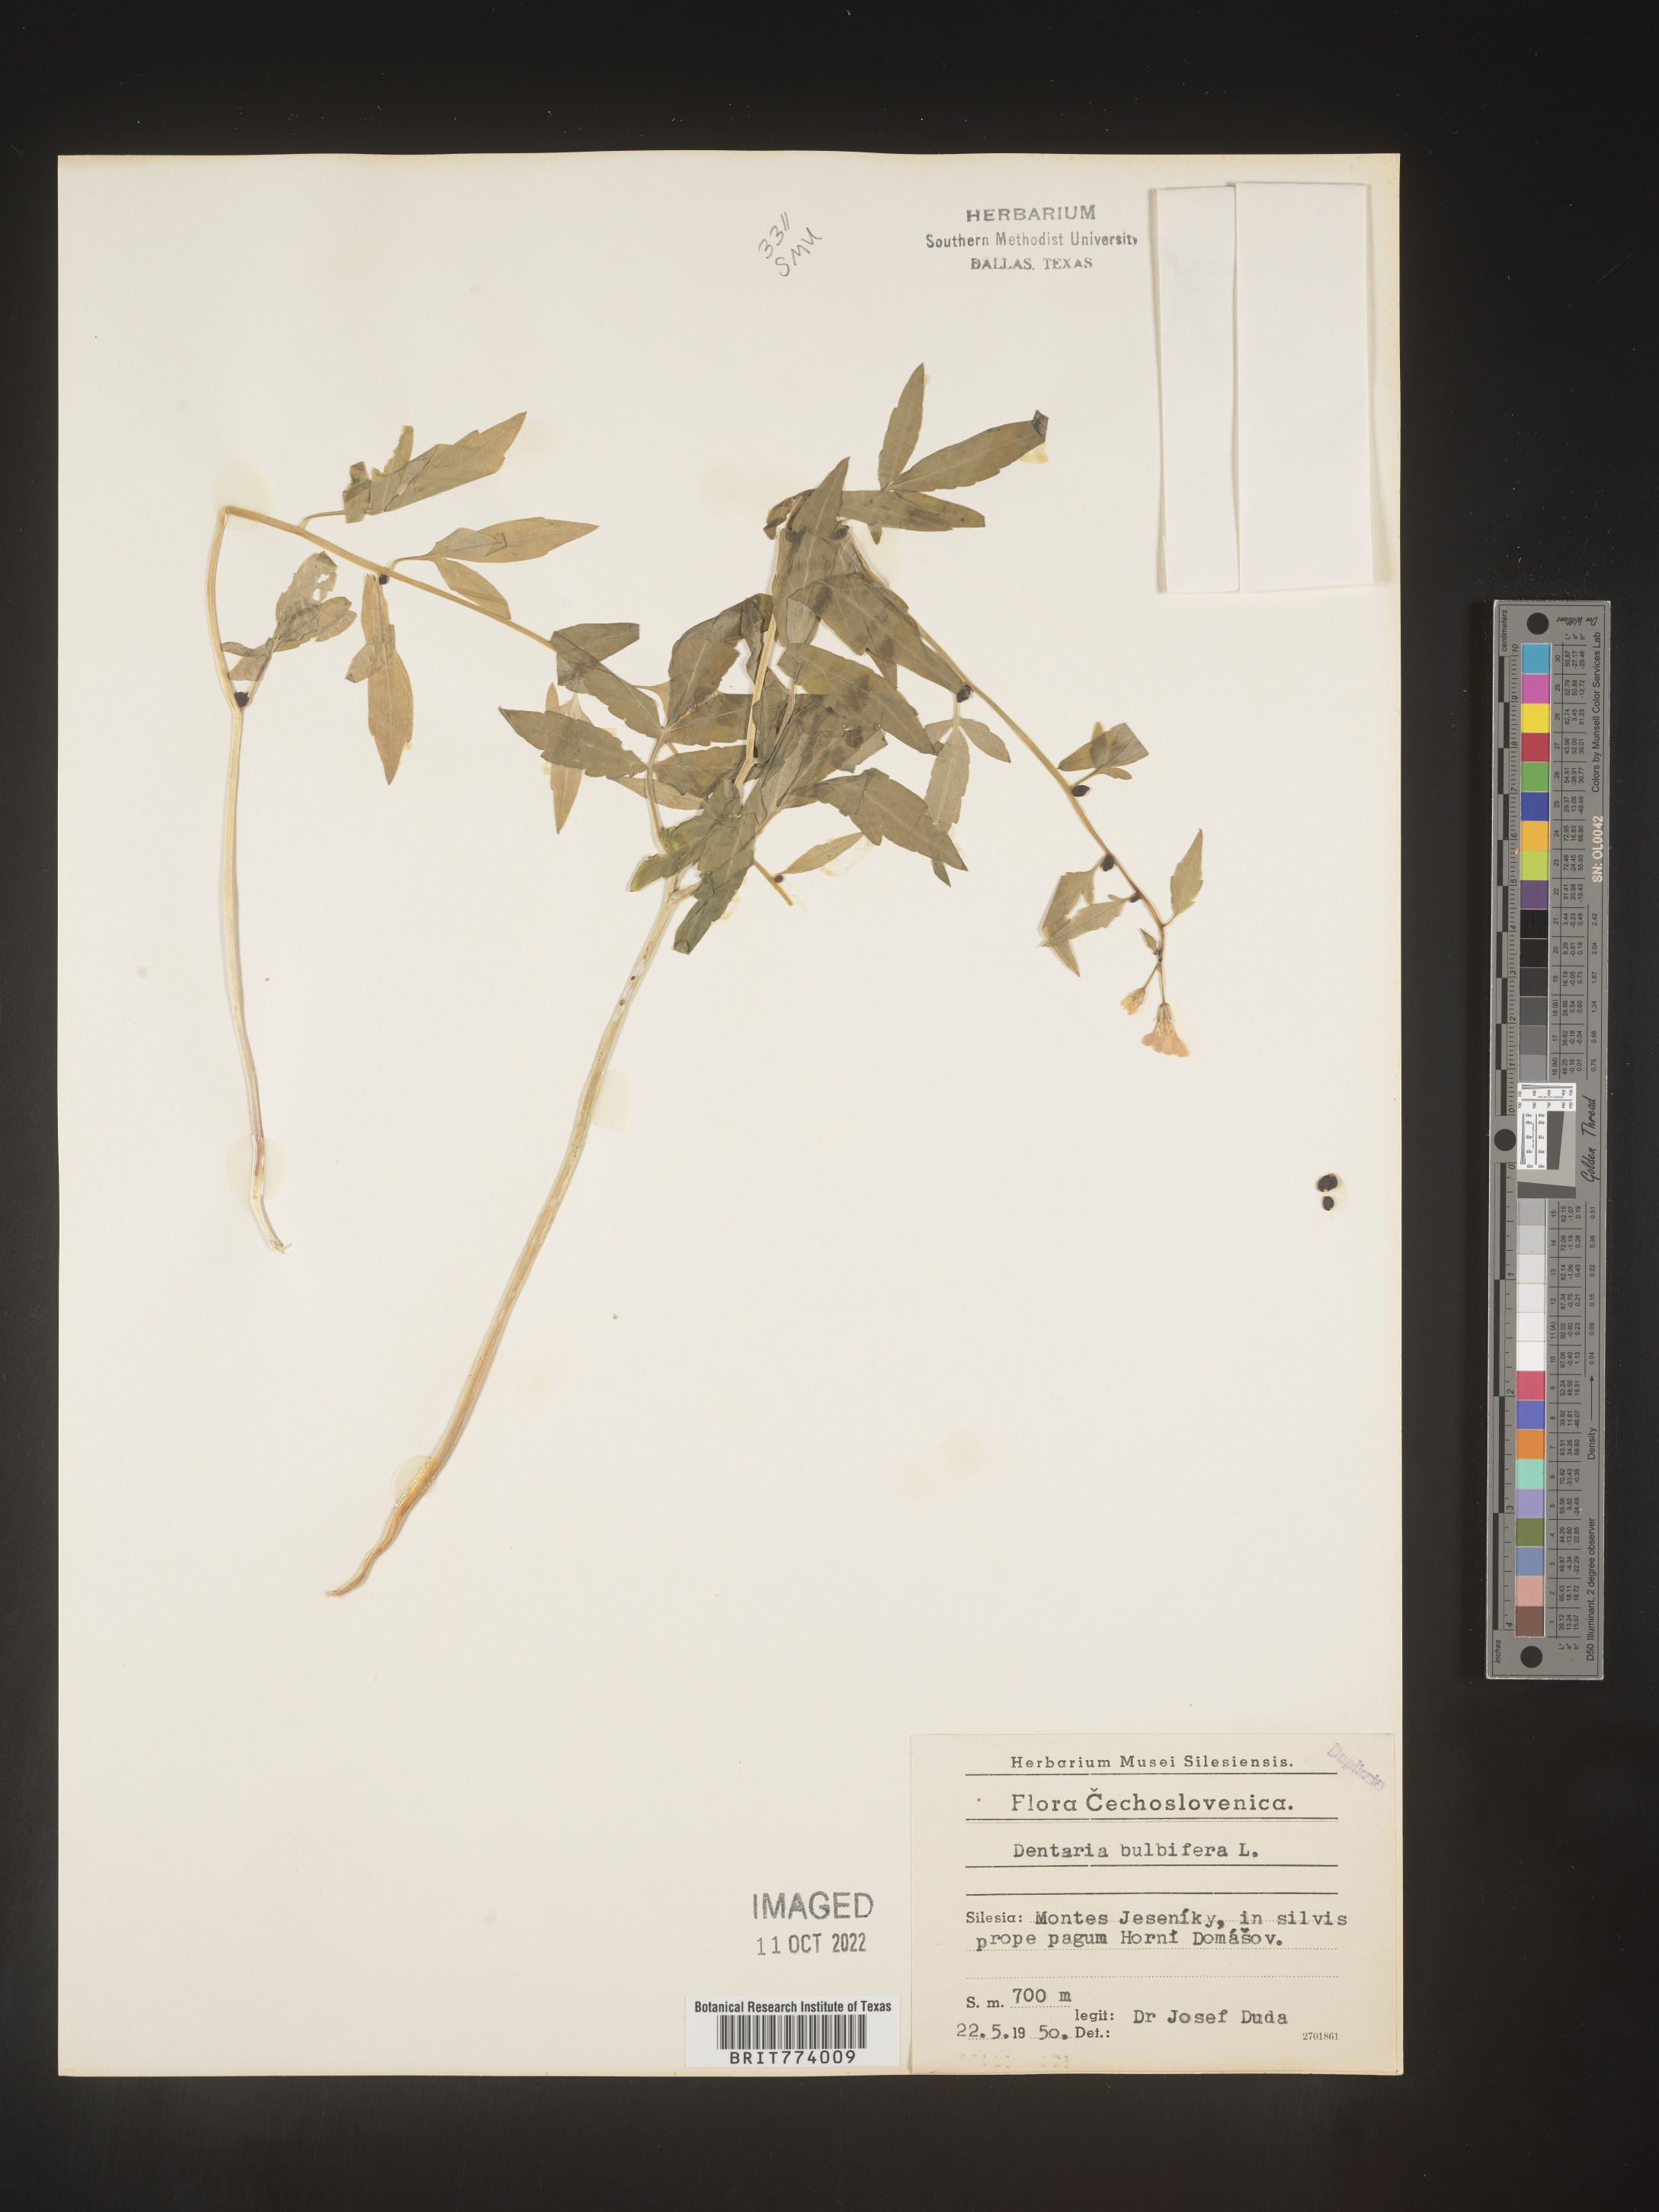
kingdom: Plantae
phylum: Tracheophyta
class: Magnoliopsida
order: Brassicales
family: Brassicaceae
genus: Cardamine
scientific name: Cardamine
